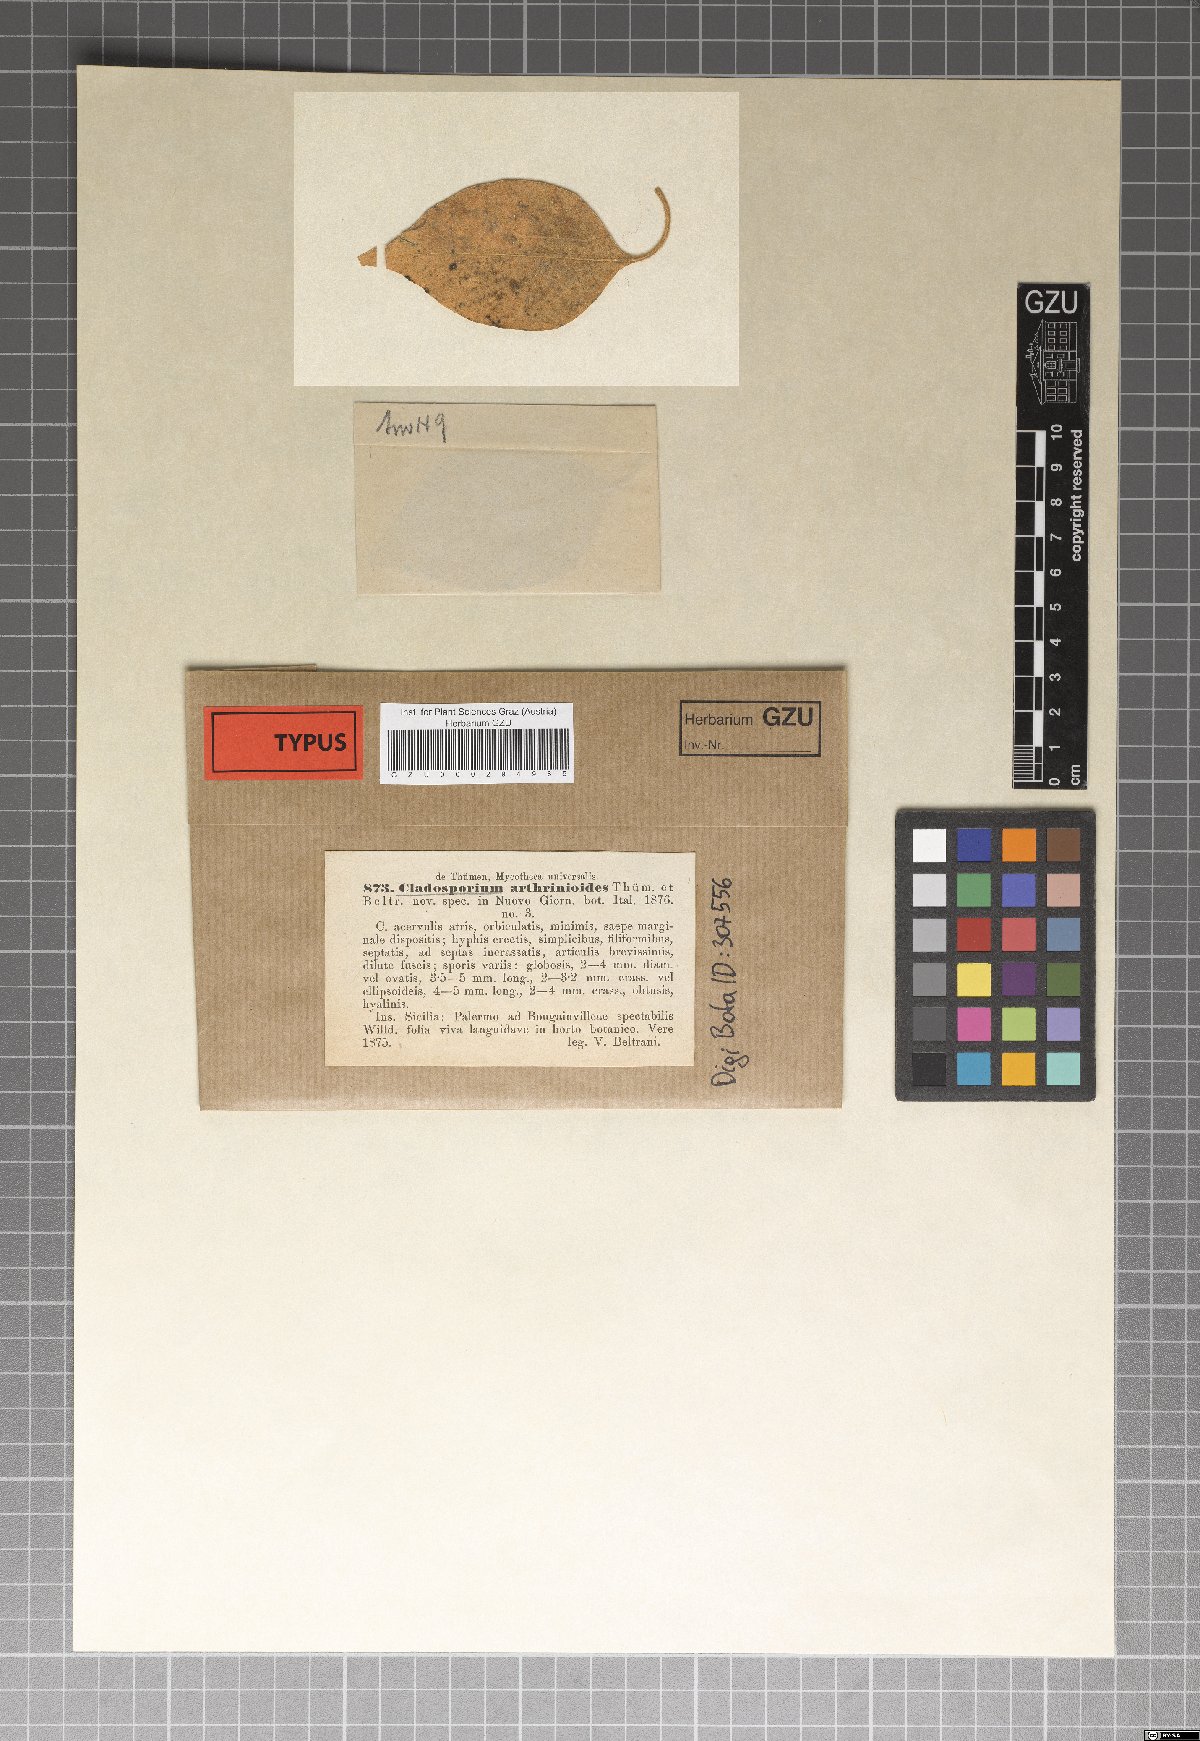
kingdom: Fungi
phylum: Ascomycota
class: Dothideomycetes
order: Capnodiales
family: Cladosporiaceae
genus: Cladosporium
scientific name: Cladosporium arthrinioides
